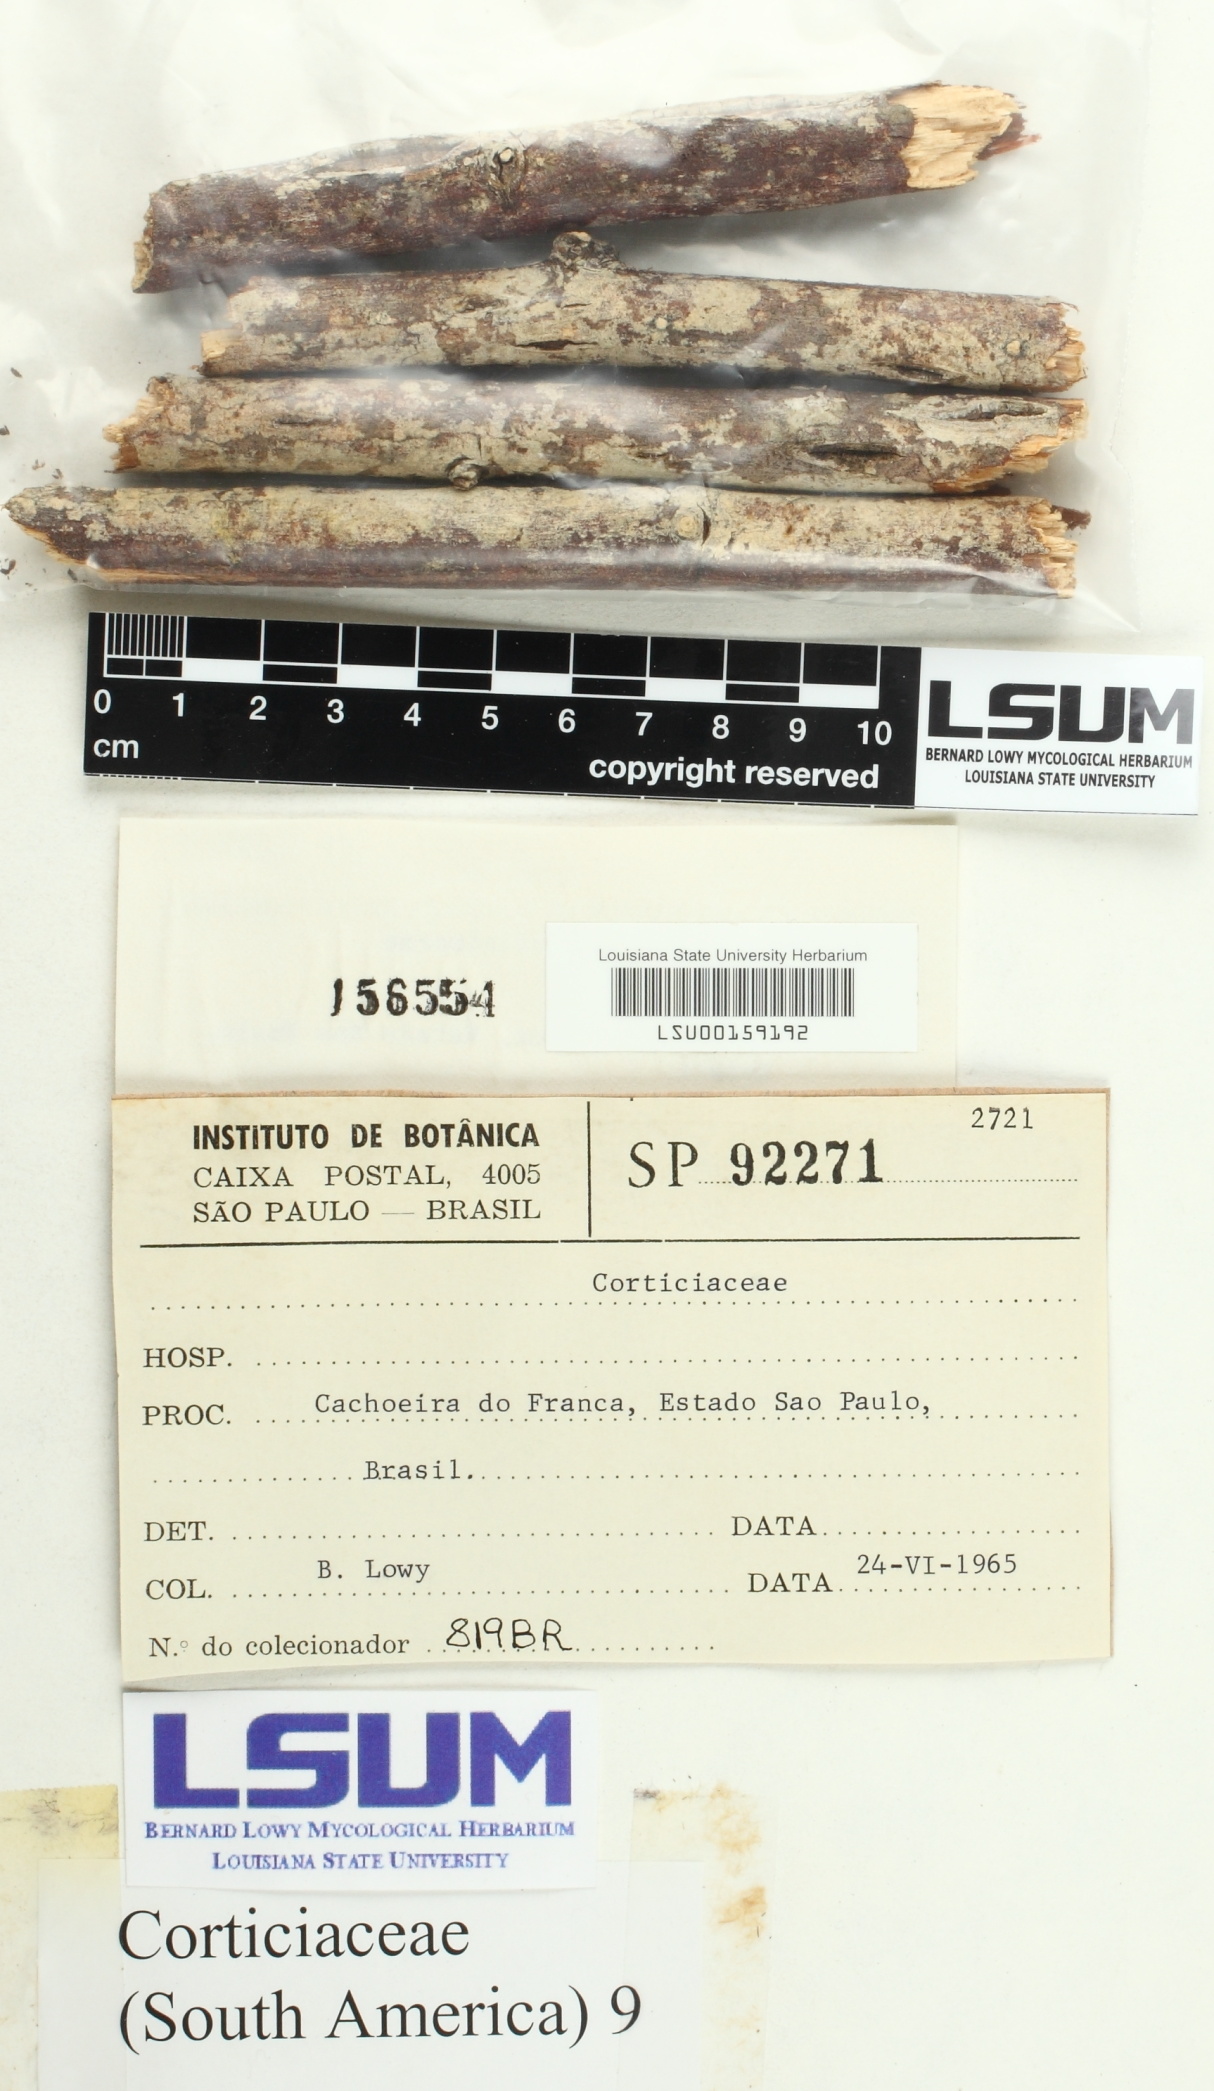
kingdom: Fungi
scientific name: Fungi
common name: Fungi
